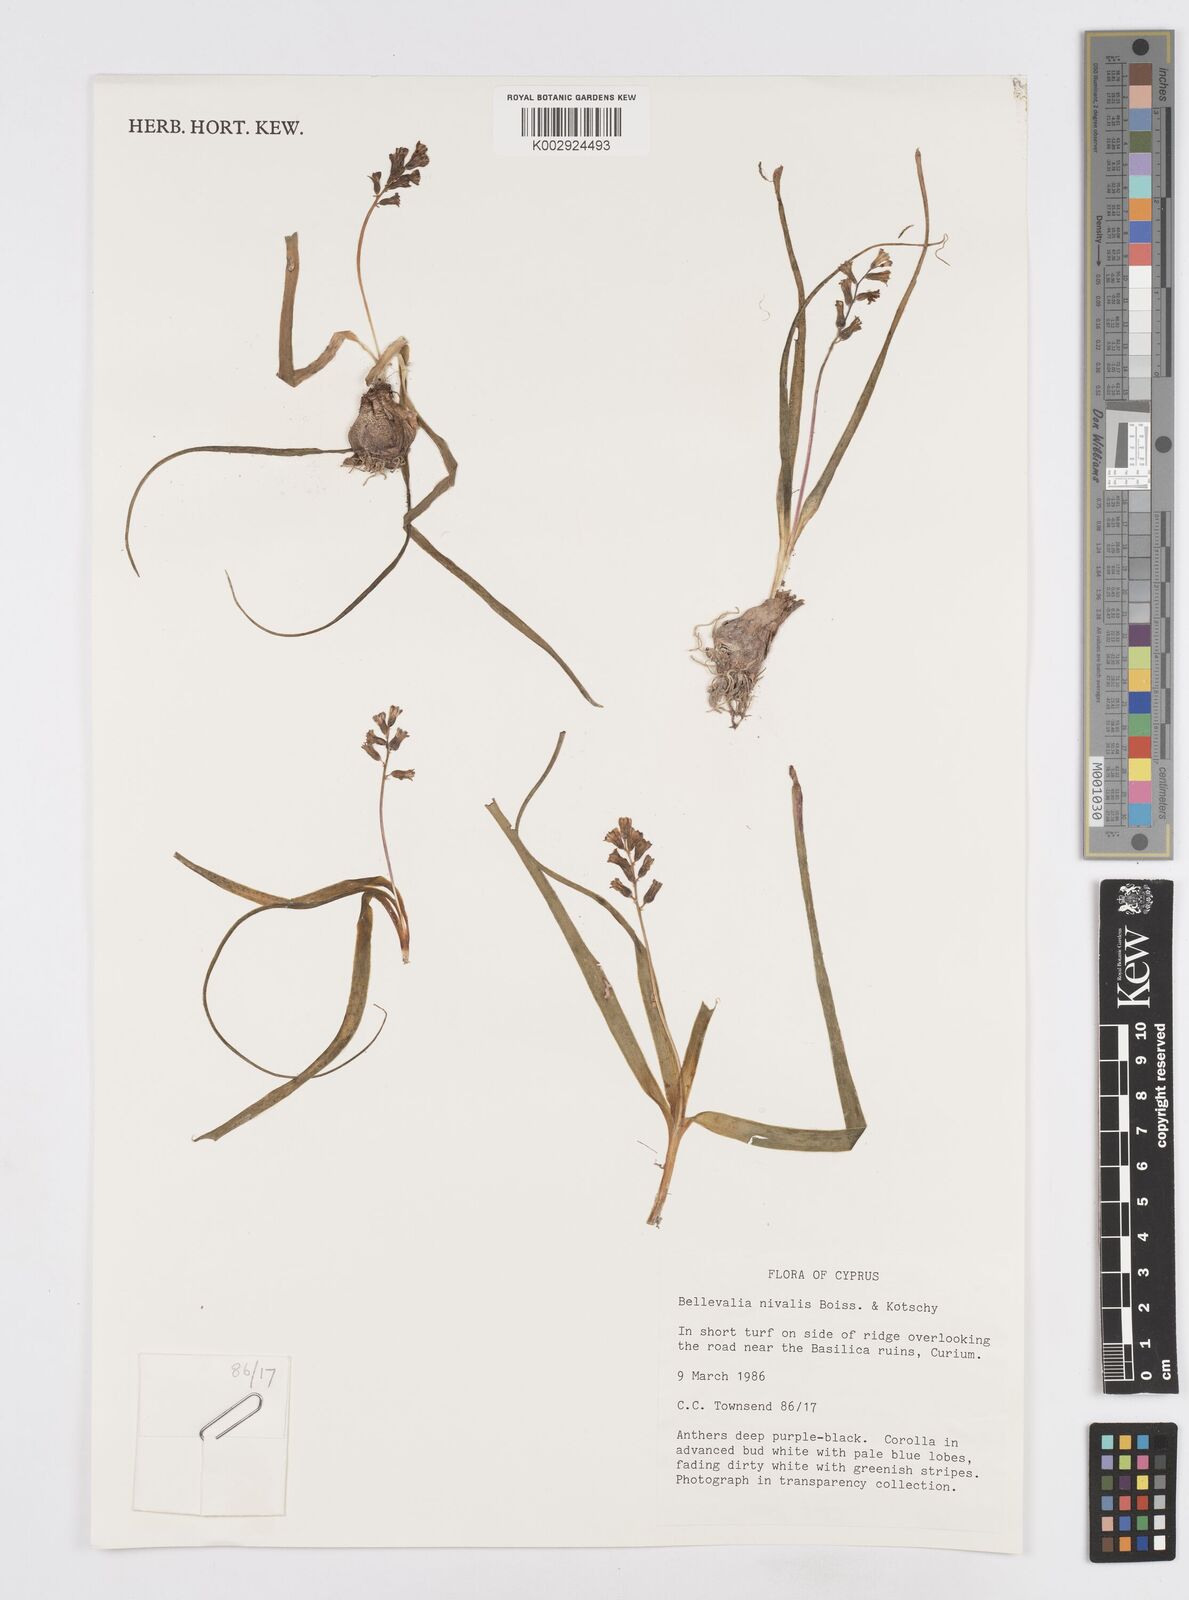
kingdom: Plantae
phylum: Tracheophyta
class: Liliopsida
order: Asparagales
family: Asparagaceae
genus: Bellevalia
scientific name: Bellevalia nivalis
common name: Snow bellevalia
